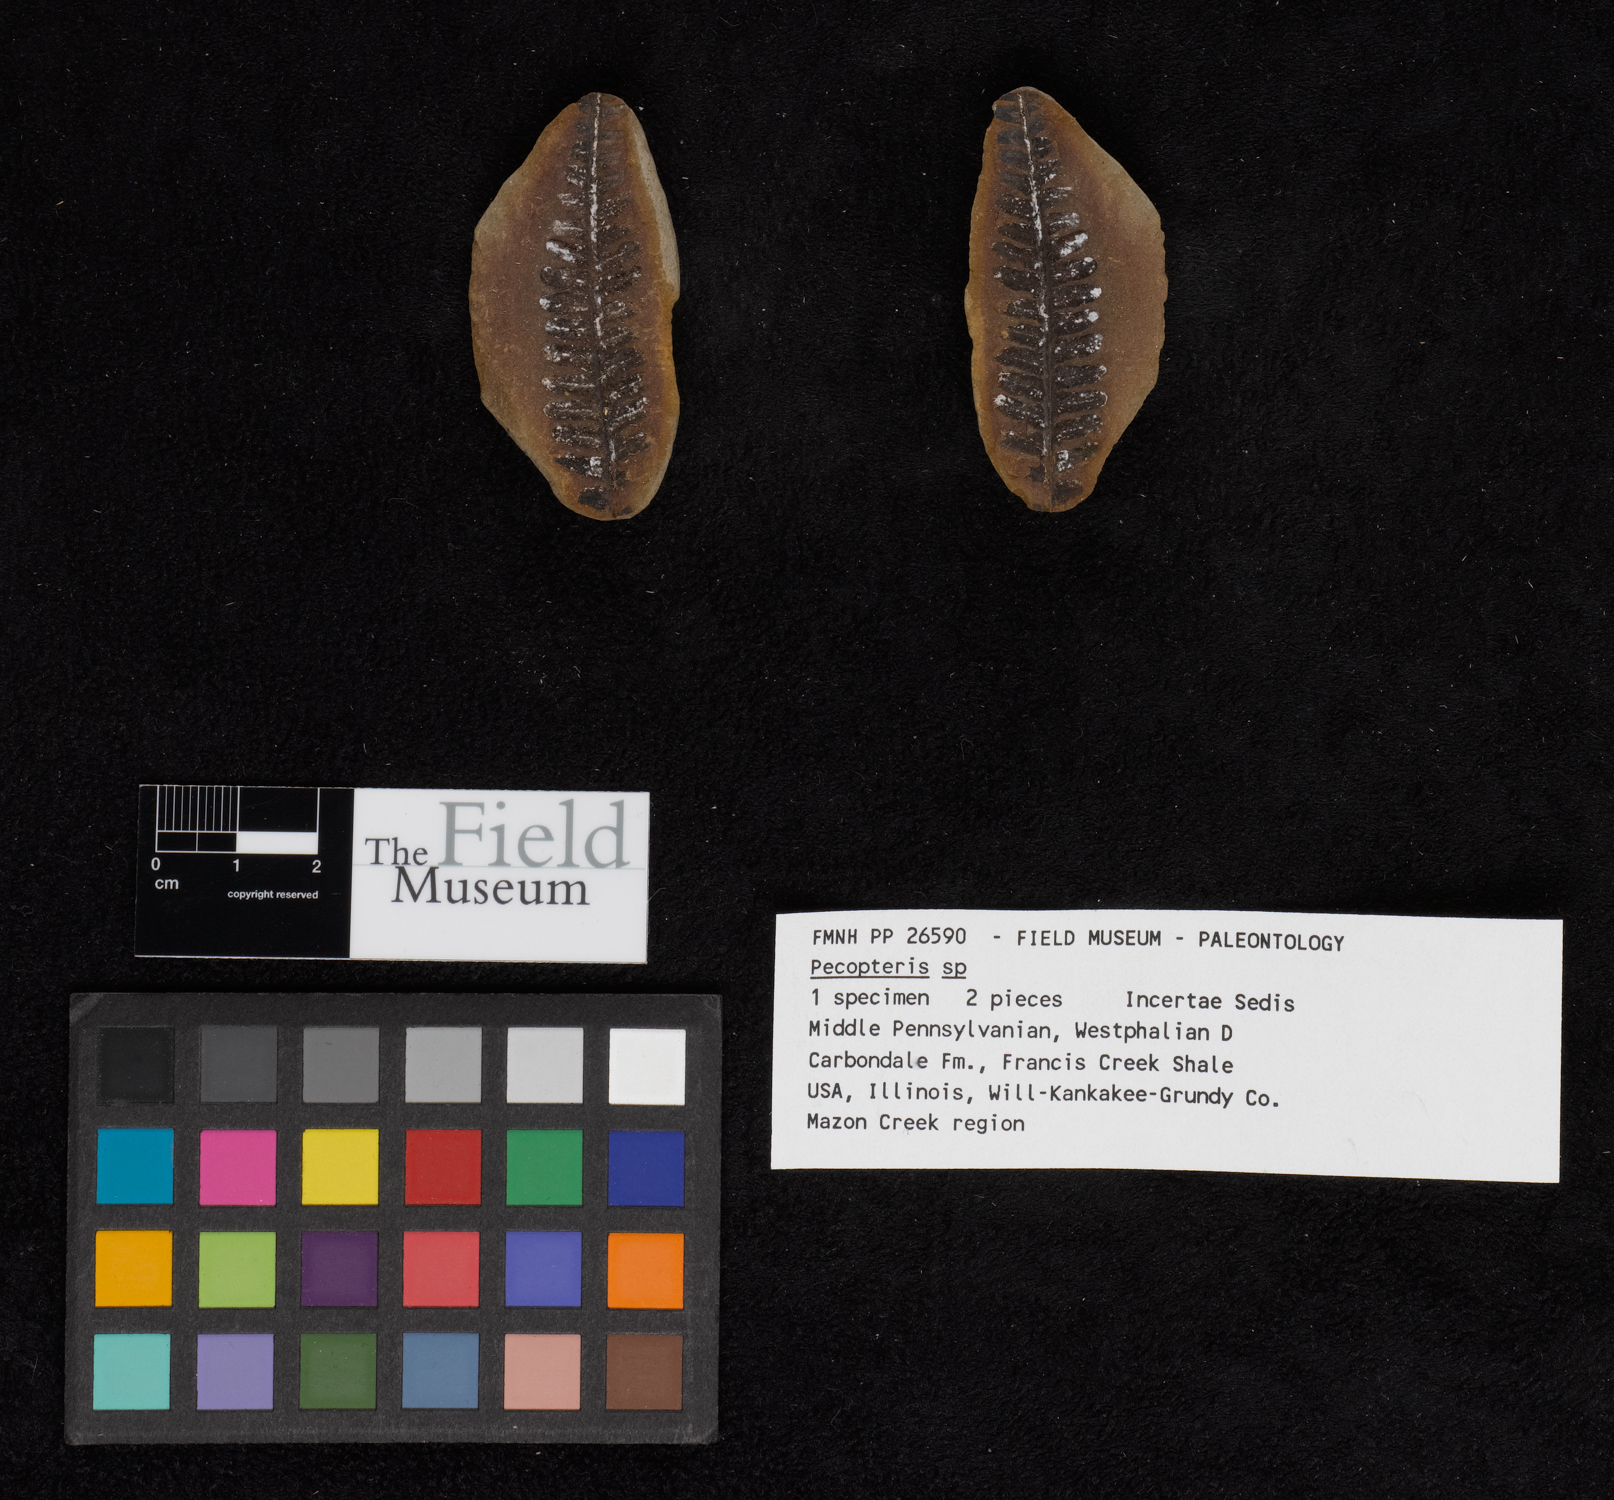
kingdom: Plantae
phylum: Tracheophyta
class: Polypodiopsida
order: Marattiales
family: Asterothecaceae
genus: Pecopteris
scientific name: Pecopteris
